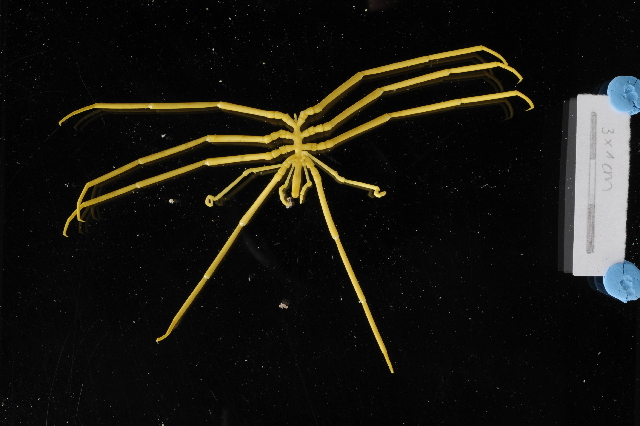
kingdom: Animalia
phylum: Arthropoda
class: Pycnogonida
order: Pantopoda
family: Colossendeidae
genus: Colossendeis
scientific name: Colossendeis
